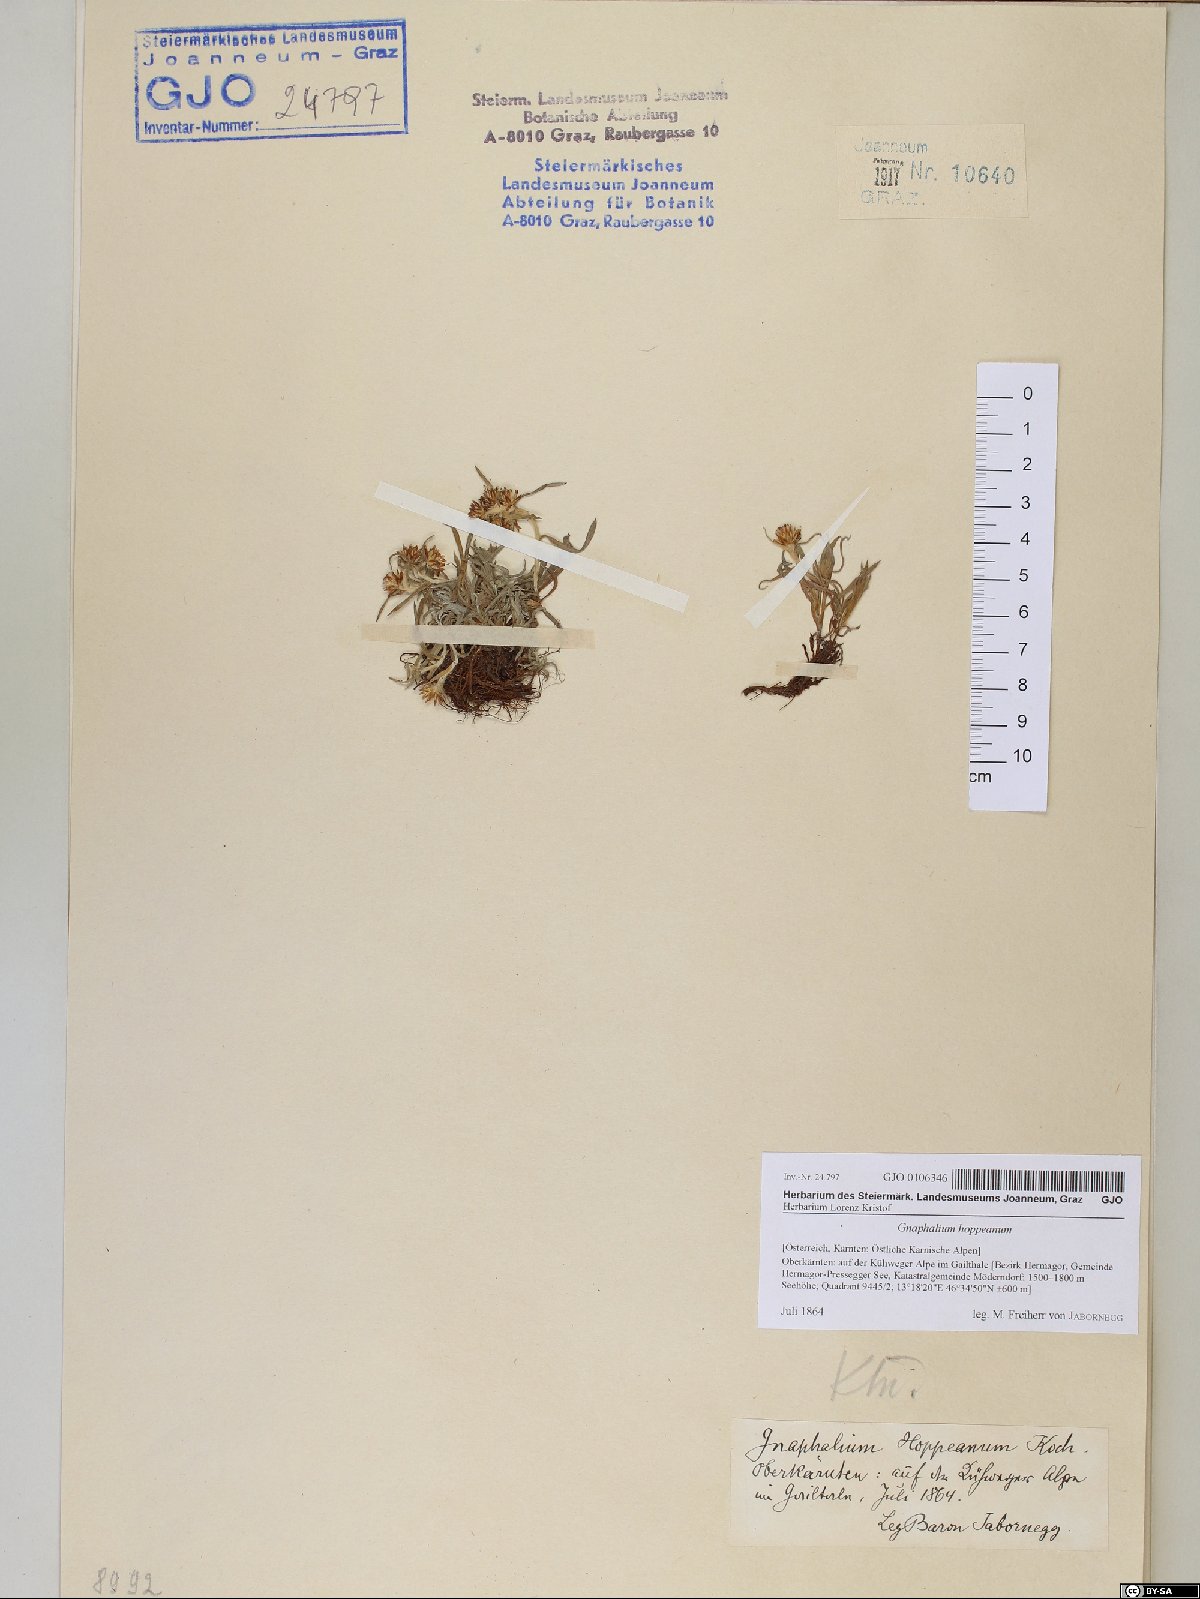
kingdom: Plantae
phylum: Tracheophyta
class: Magnoliopsida
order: Asterales
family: Asteraceae
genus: Omalotheca
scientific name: Omalotheca hoppeana
